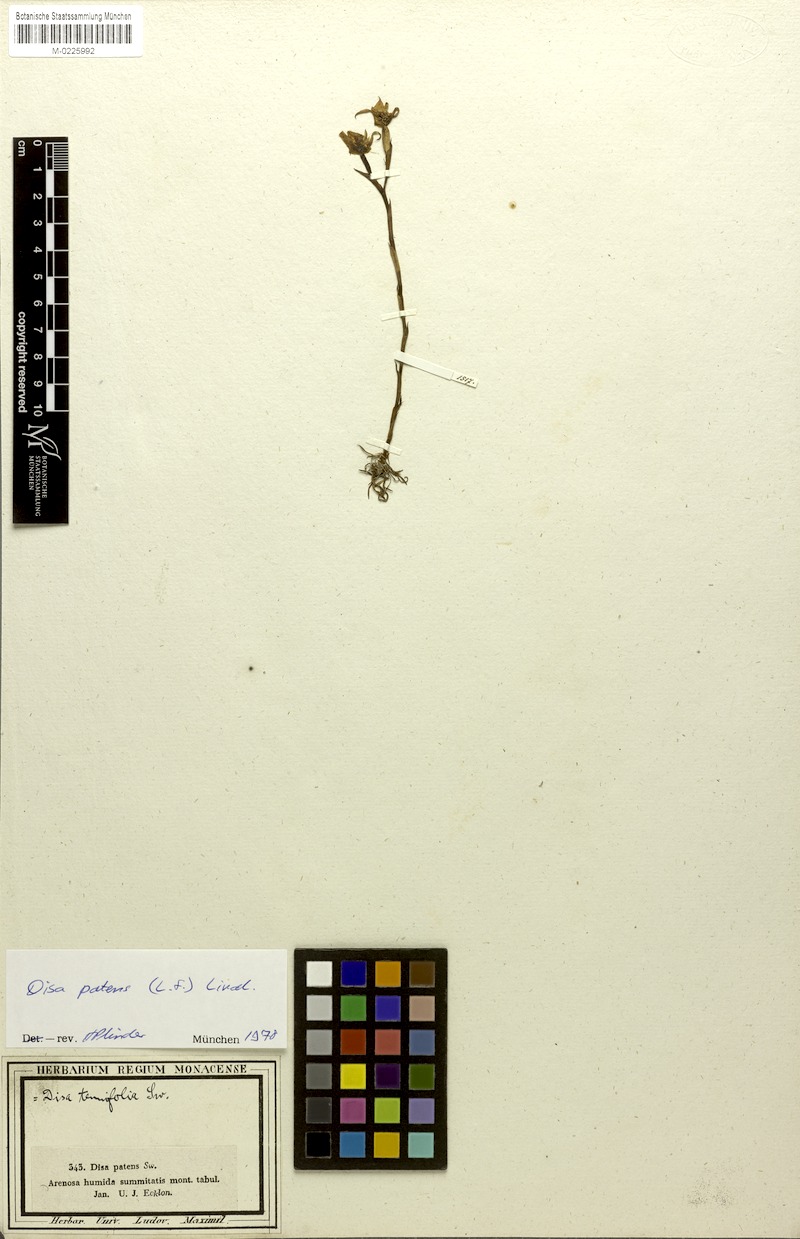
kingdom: Plantae
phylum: Tracheophyta
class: Liliopsida
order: Asparagales
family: Orchidaceae
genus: Disa
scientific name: Disa tenuifolia
